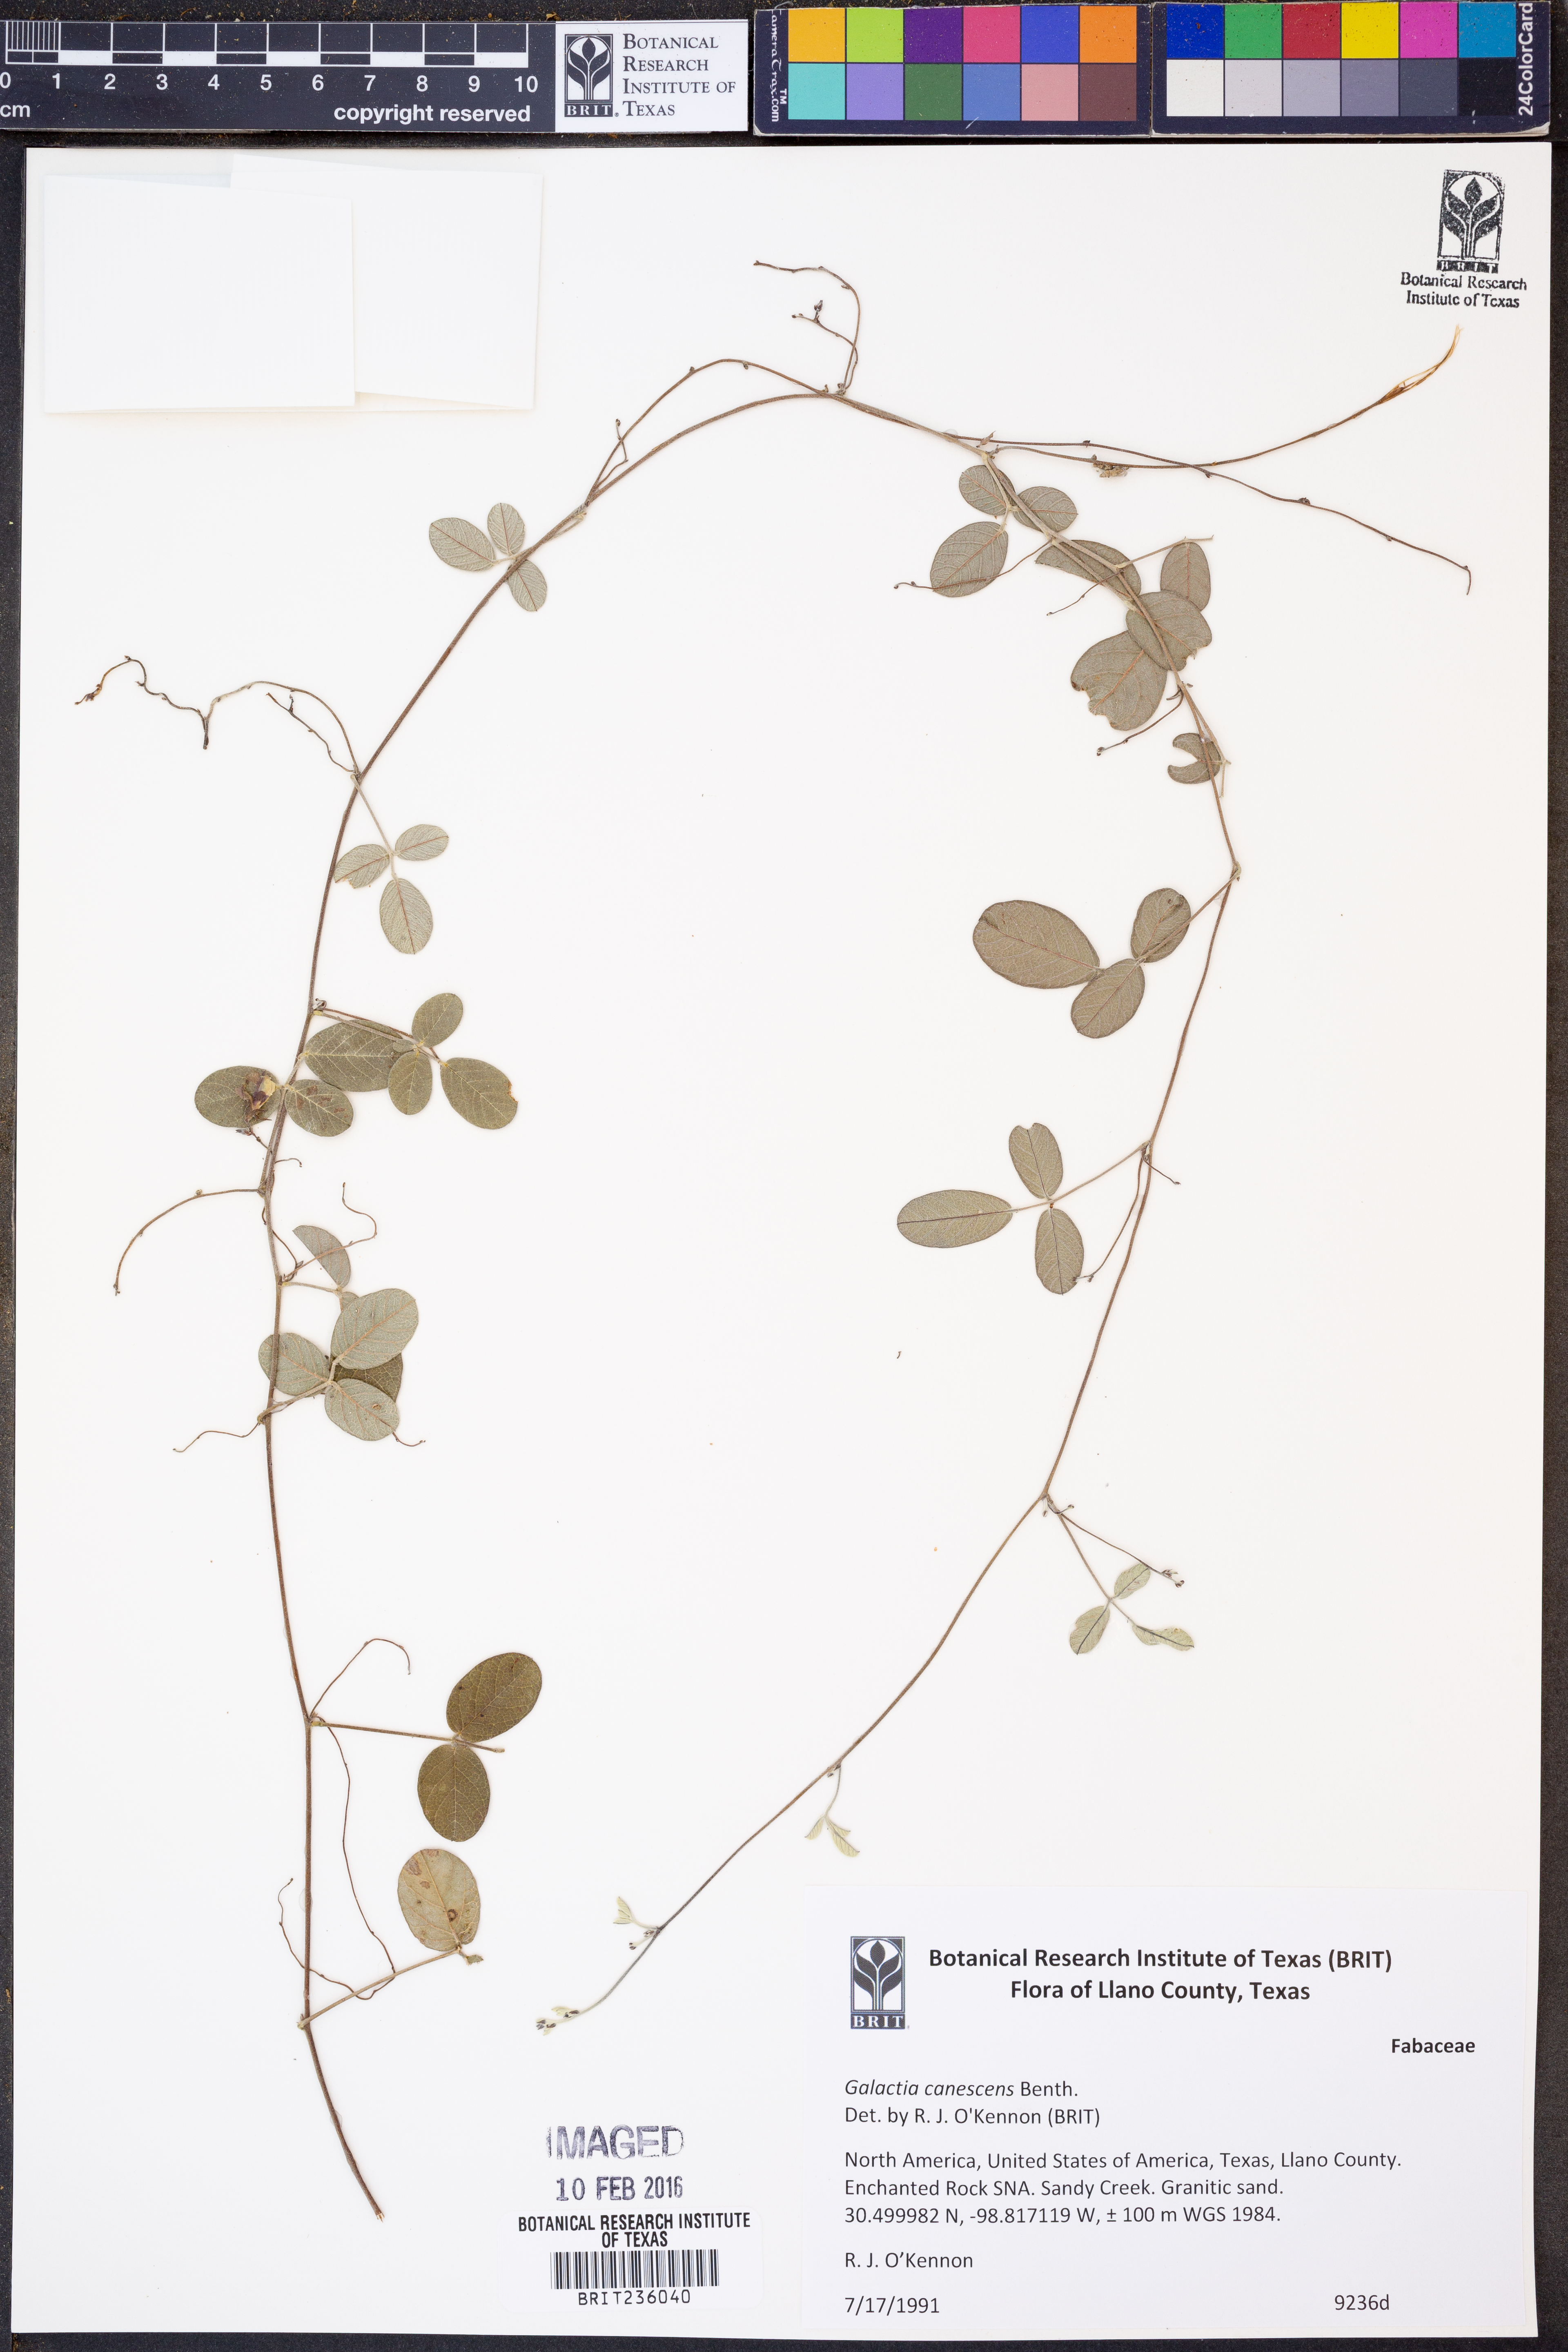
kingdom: Plantae
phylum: Tracheophyta
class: Magnoliopsida
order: Fabales
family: Fabaceae
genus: Galactia
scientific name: Galactia canescens
